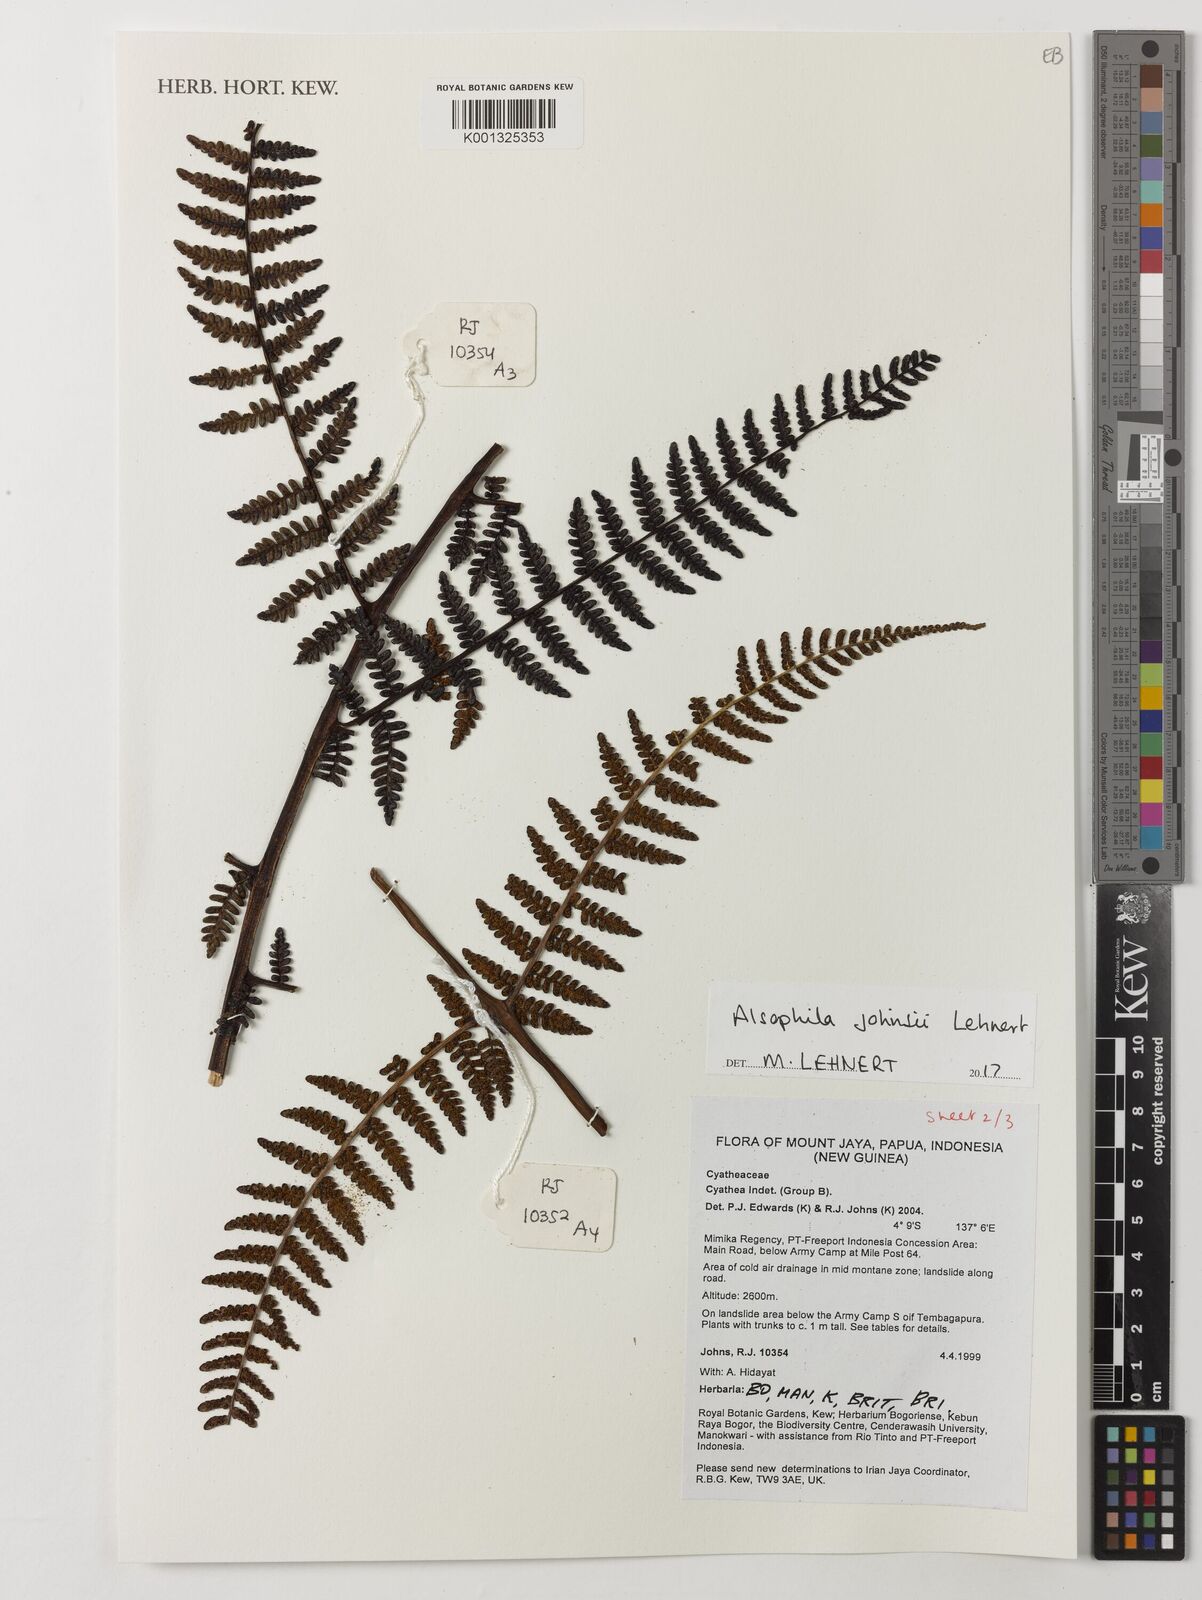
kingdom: Plantae
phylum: Tracheophyta
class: Polypodiopsida
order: Cyatheales
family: Cyatheaceae
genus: Alsophila
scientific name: Alsophila johnsii
